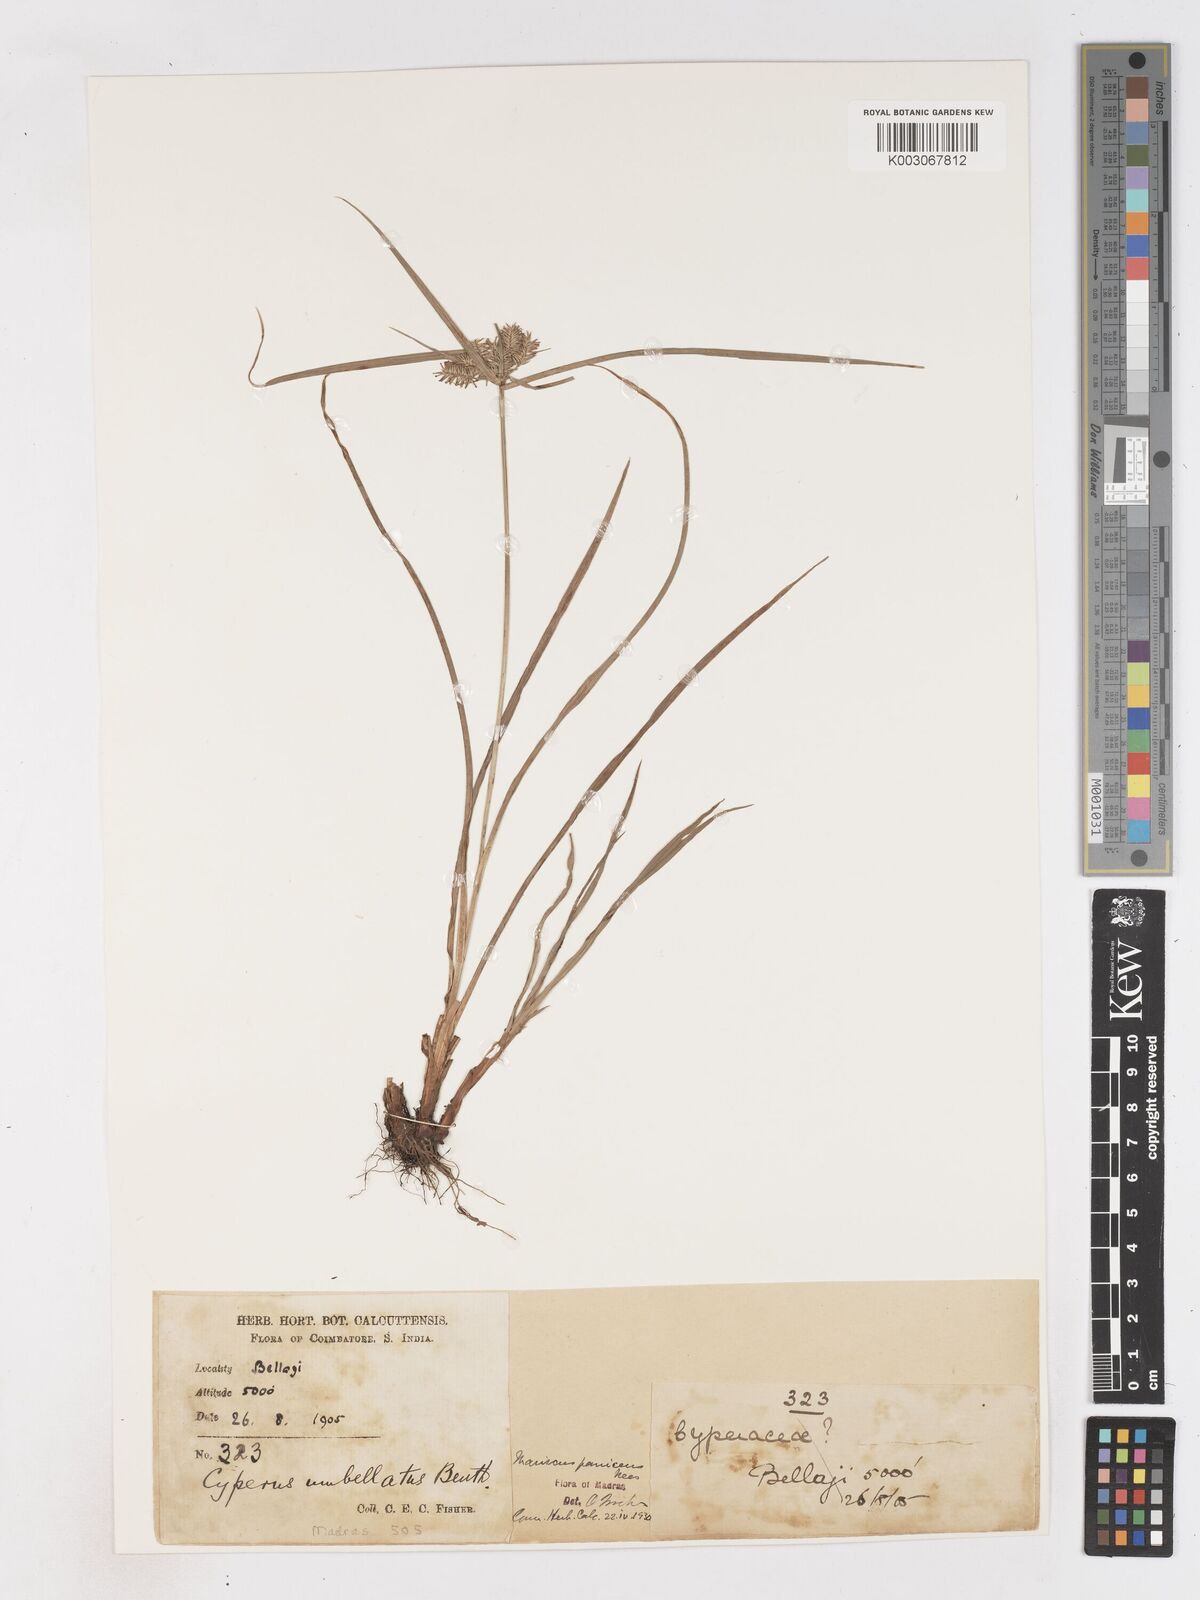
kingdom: Plantae
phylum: Tracheophyta
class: Liliopsida
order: Poales
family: Cyperaceae
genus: Cyperus
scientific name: Cyperus cyperoides
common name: Pacific island flat sedge
